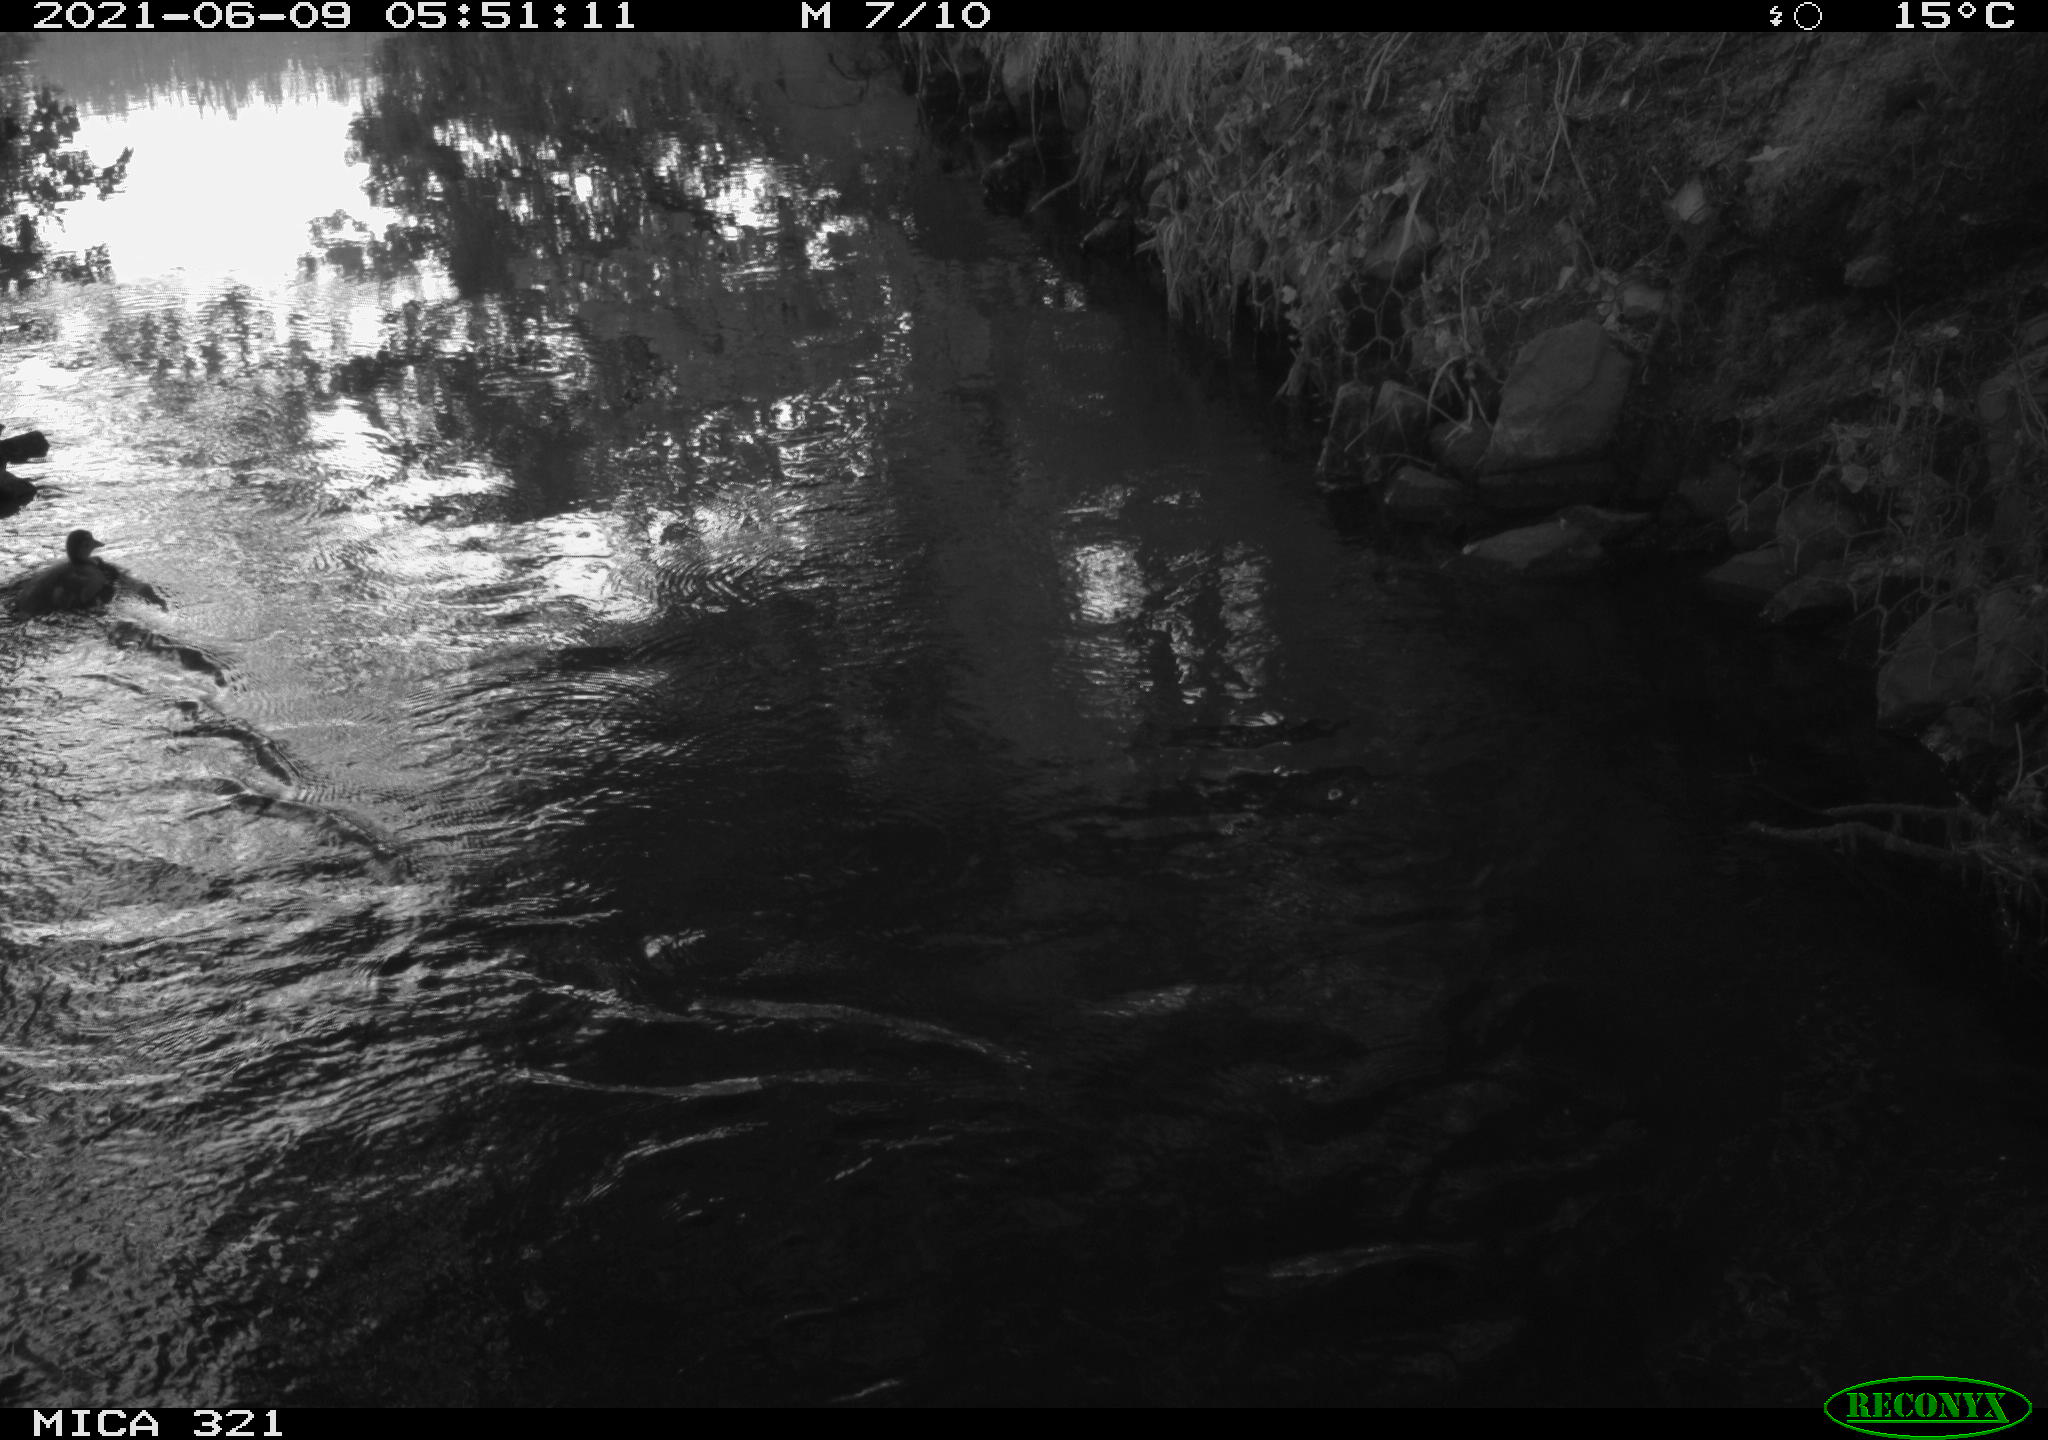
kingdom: Animalia
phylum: Chordata
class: Aves
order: Anseriformes
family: Anatidae
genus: Anas
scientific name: Anas platyrhynchos
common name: Mallard
